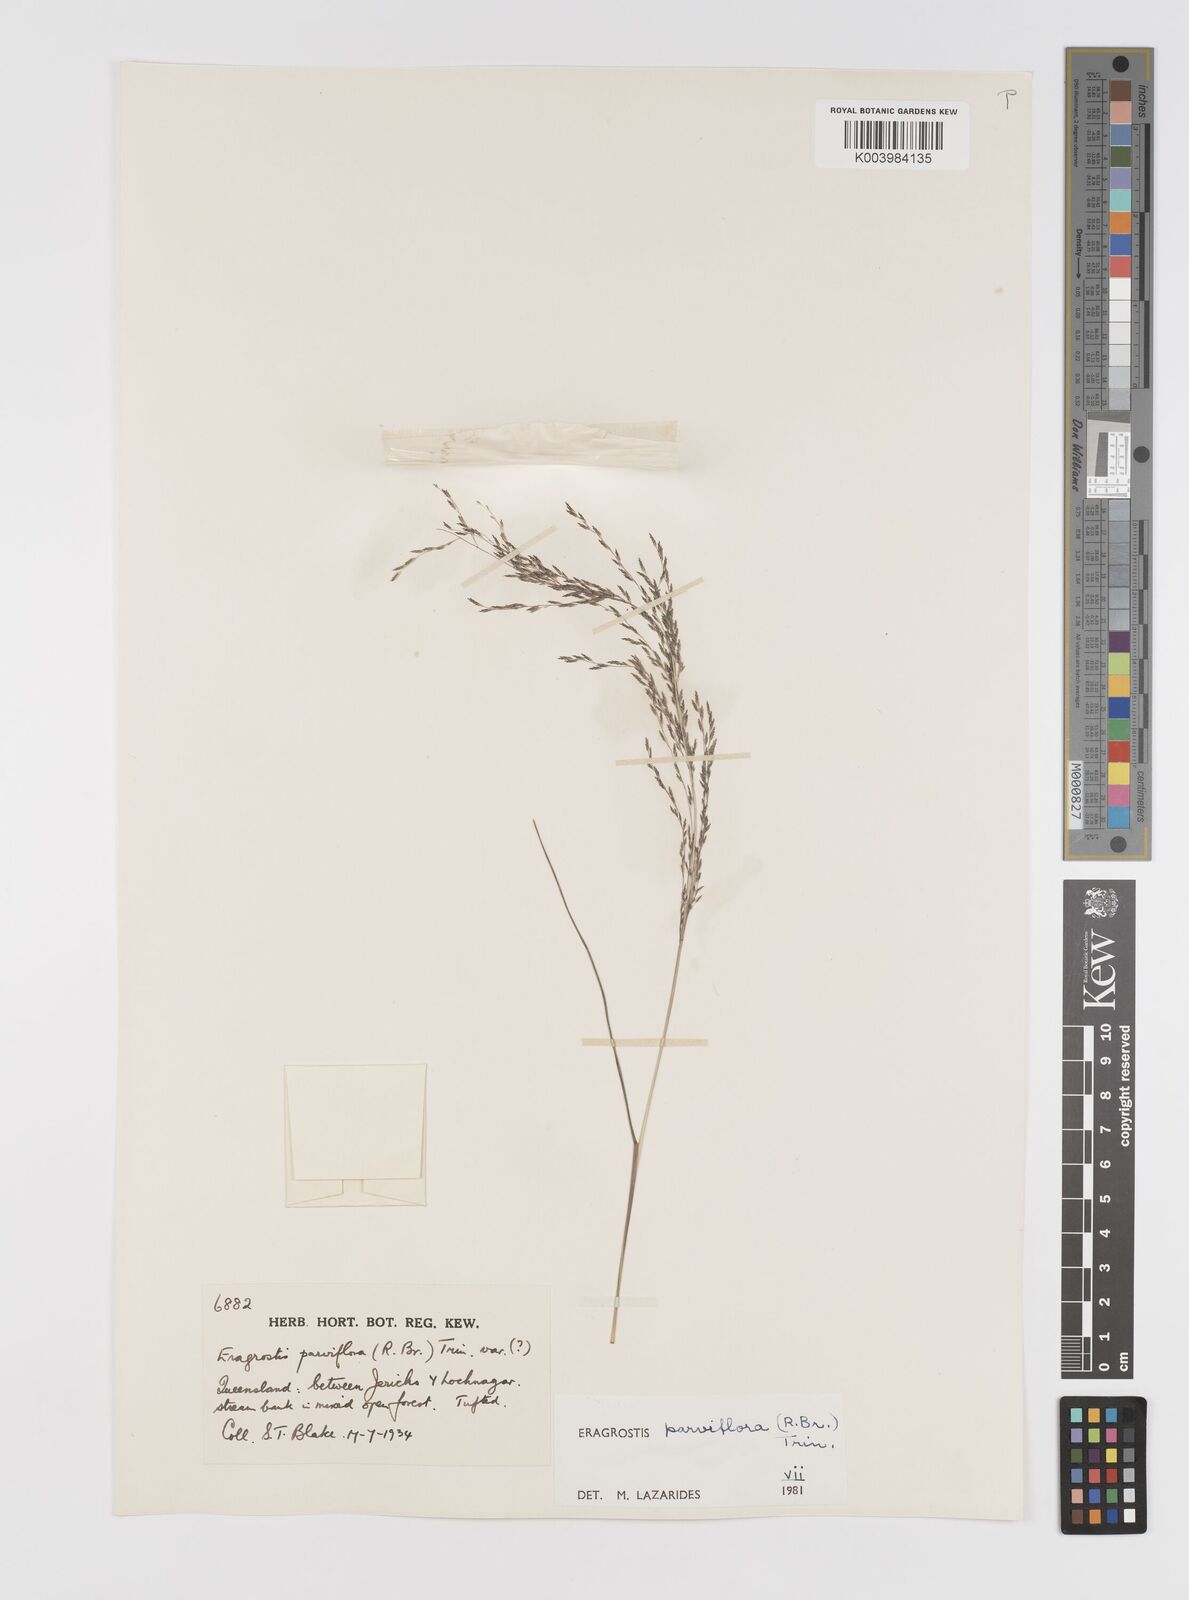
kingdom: Plantae
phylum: Tracheophyta
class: Liliopsida
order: Poales
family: Poaceae
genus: Eragrostis
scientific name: Eragrostis parviflora
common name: Weeping love-grass
